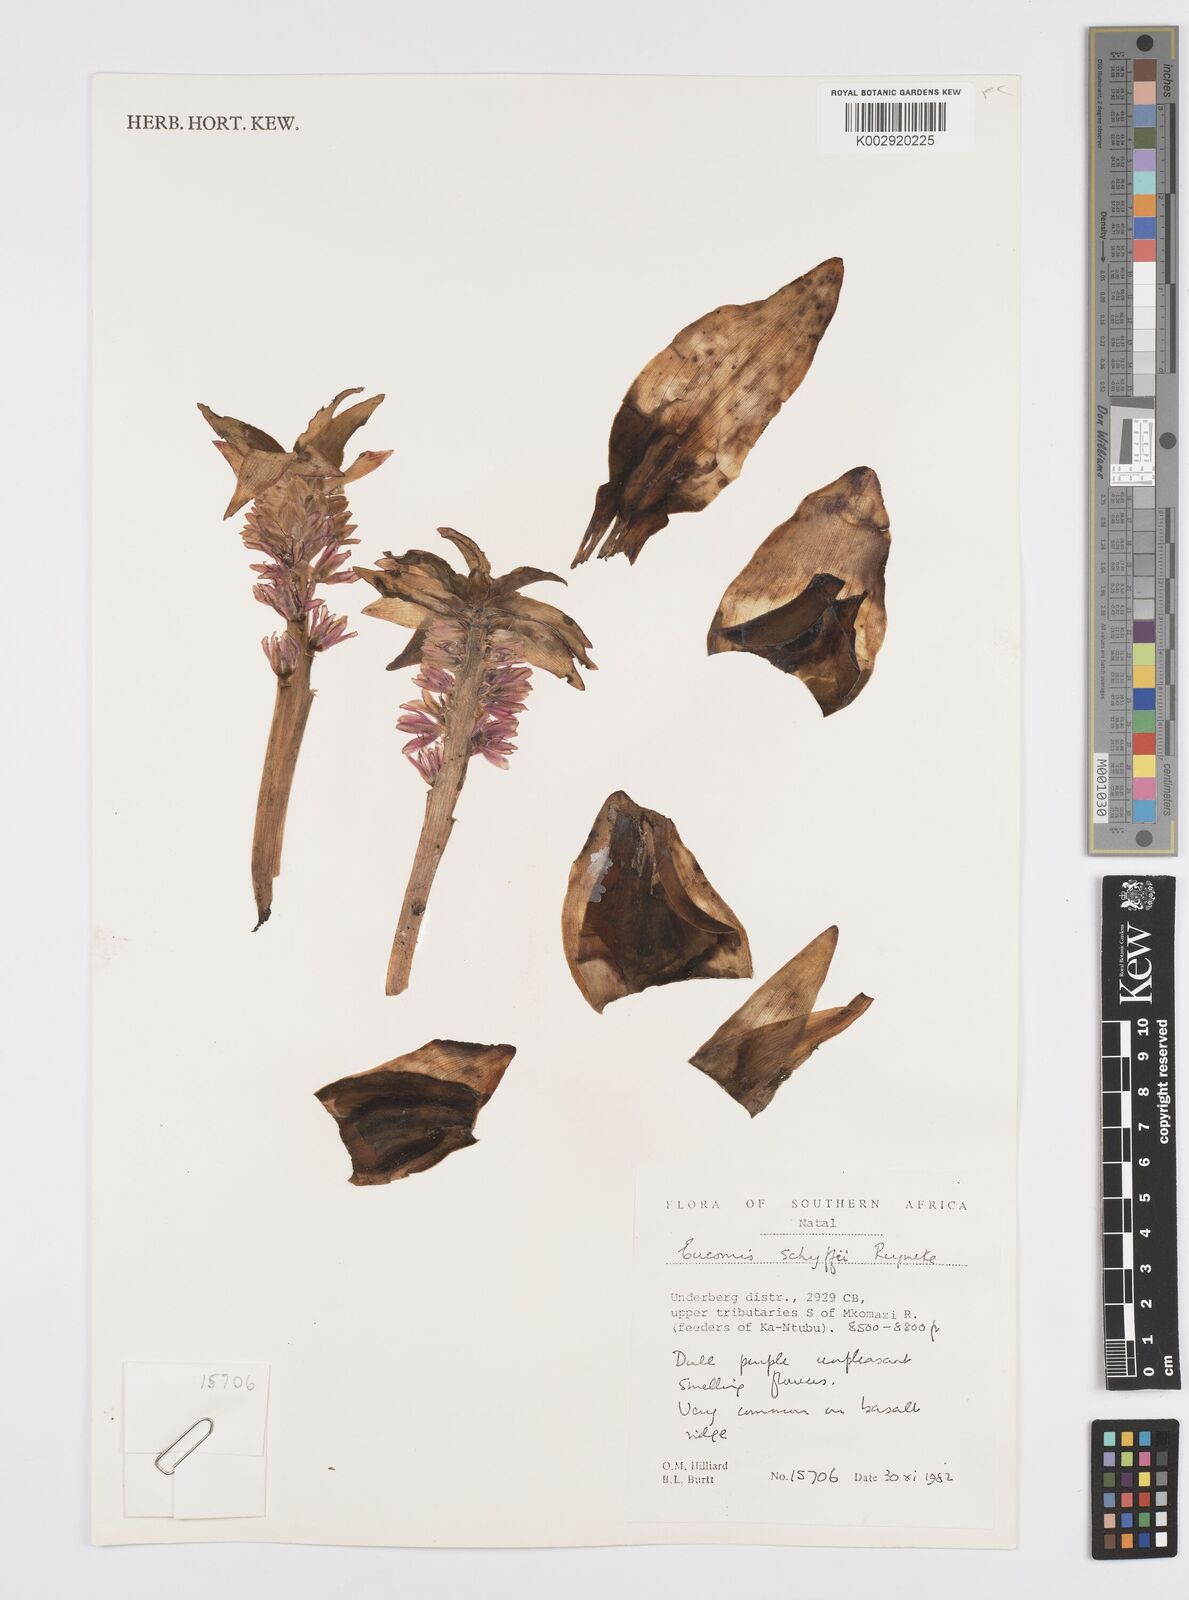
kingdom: Plantae
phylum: Tracheophyta
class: Liliopsida
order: Asparagales
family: Asparagaceae
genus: Eucomis
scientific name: Eucomis schijffii
